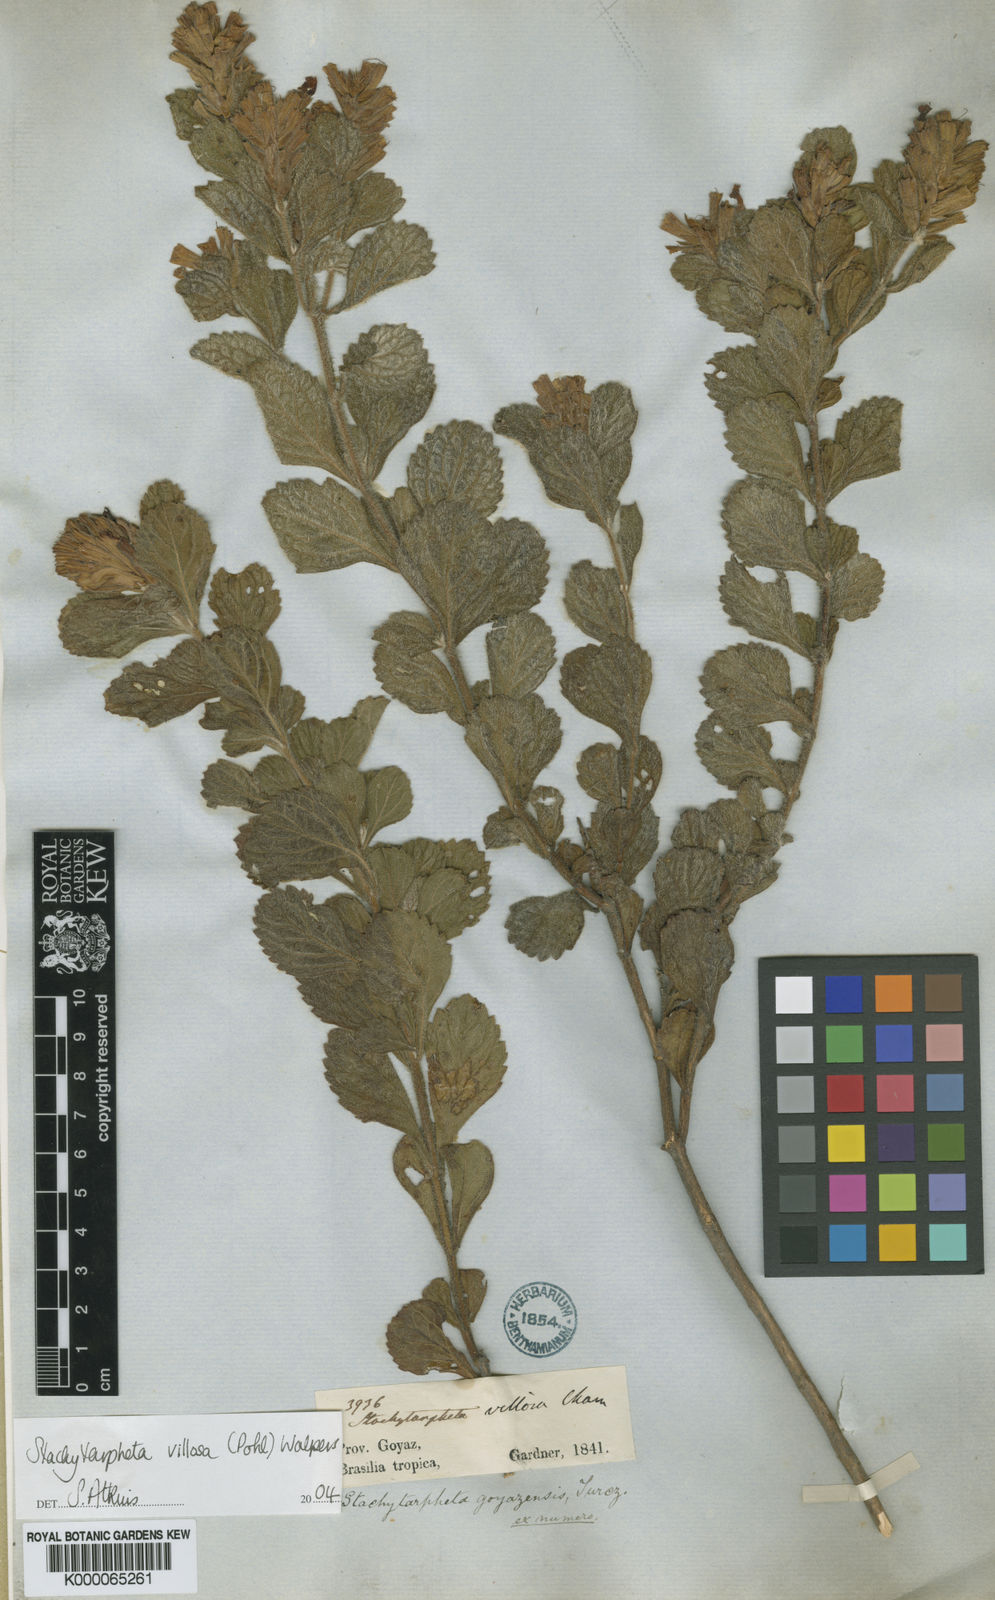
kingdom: Plantae
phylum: Tracheophyta
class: Magnoliopsida
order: Lamiales
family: Verbenaceae
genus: Stachytarpheta
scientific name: Stachytarpheta
